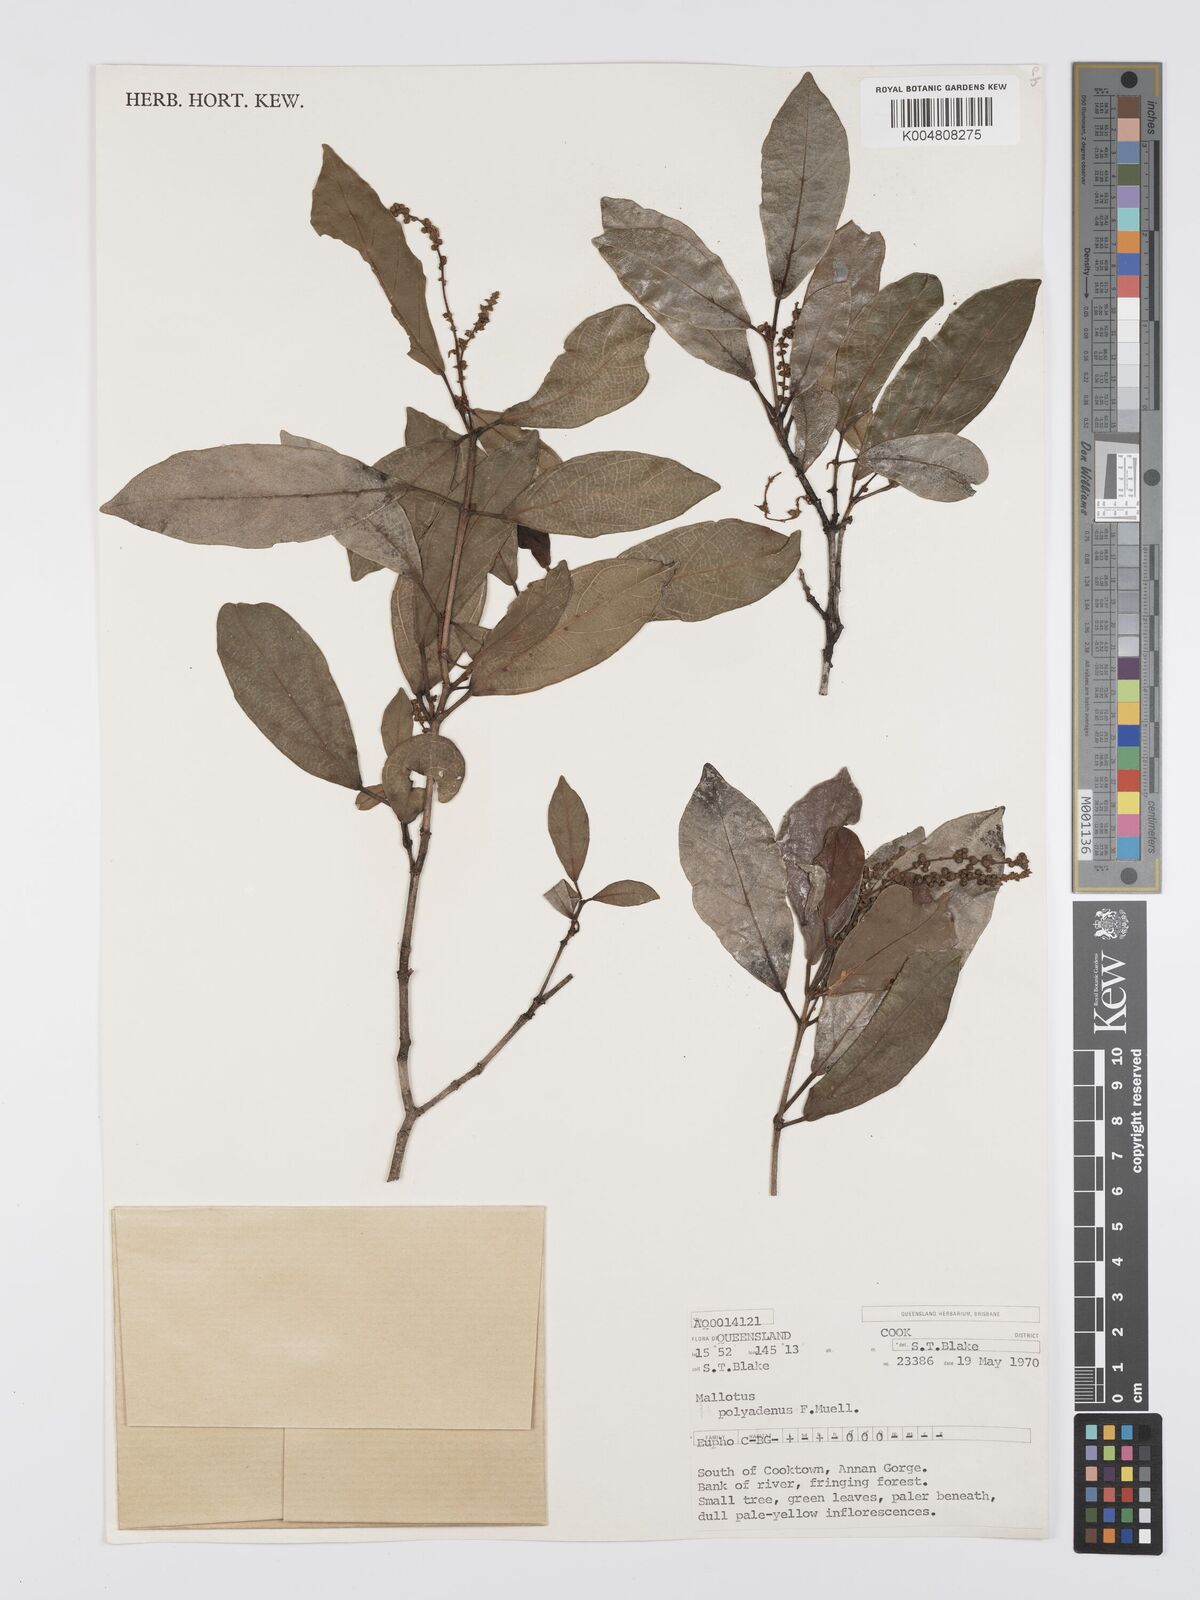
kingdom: Plantae
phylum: Tracheophyta
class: Magnoliopsida
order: Malpighiales
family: Euphorbiaceae
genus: Mallotus
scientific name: Mallotus polyadenos
